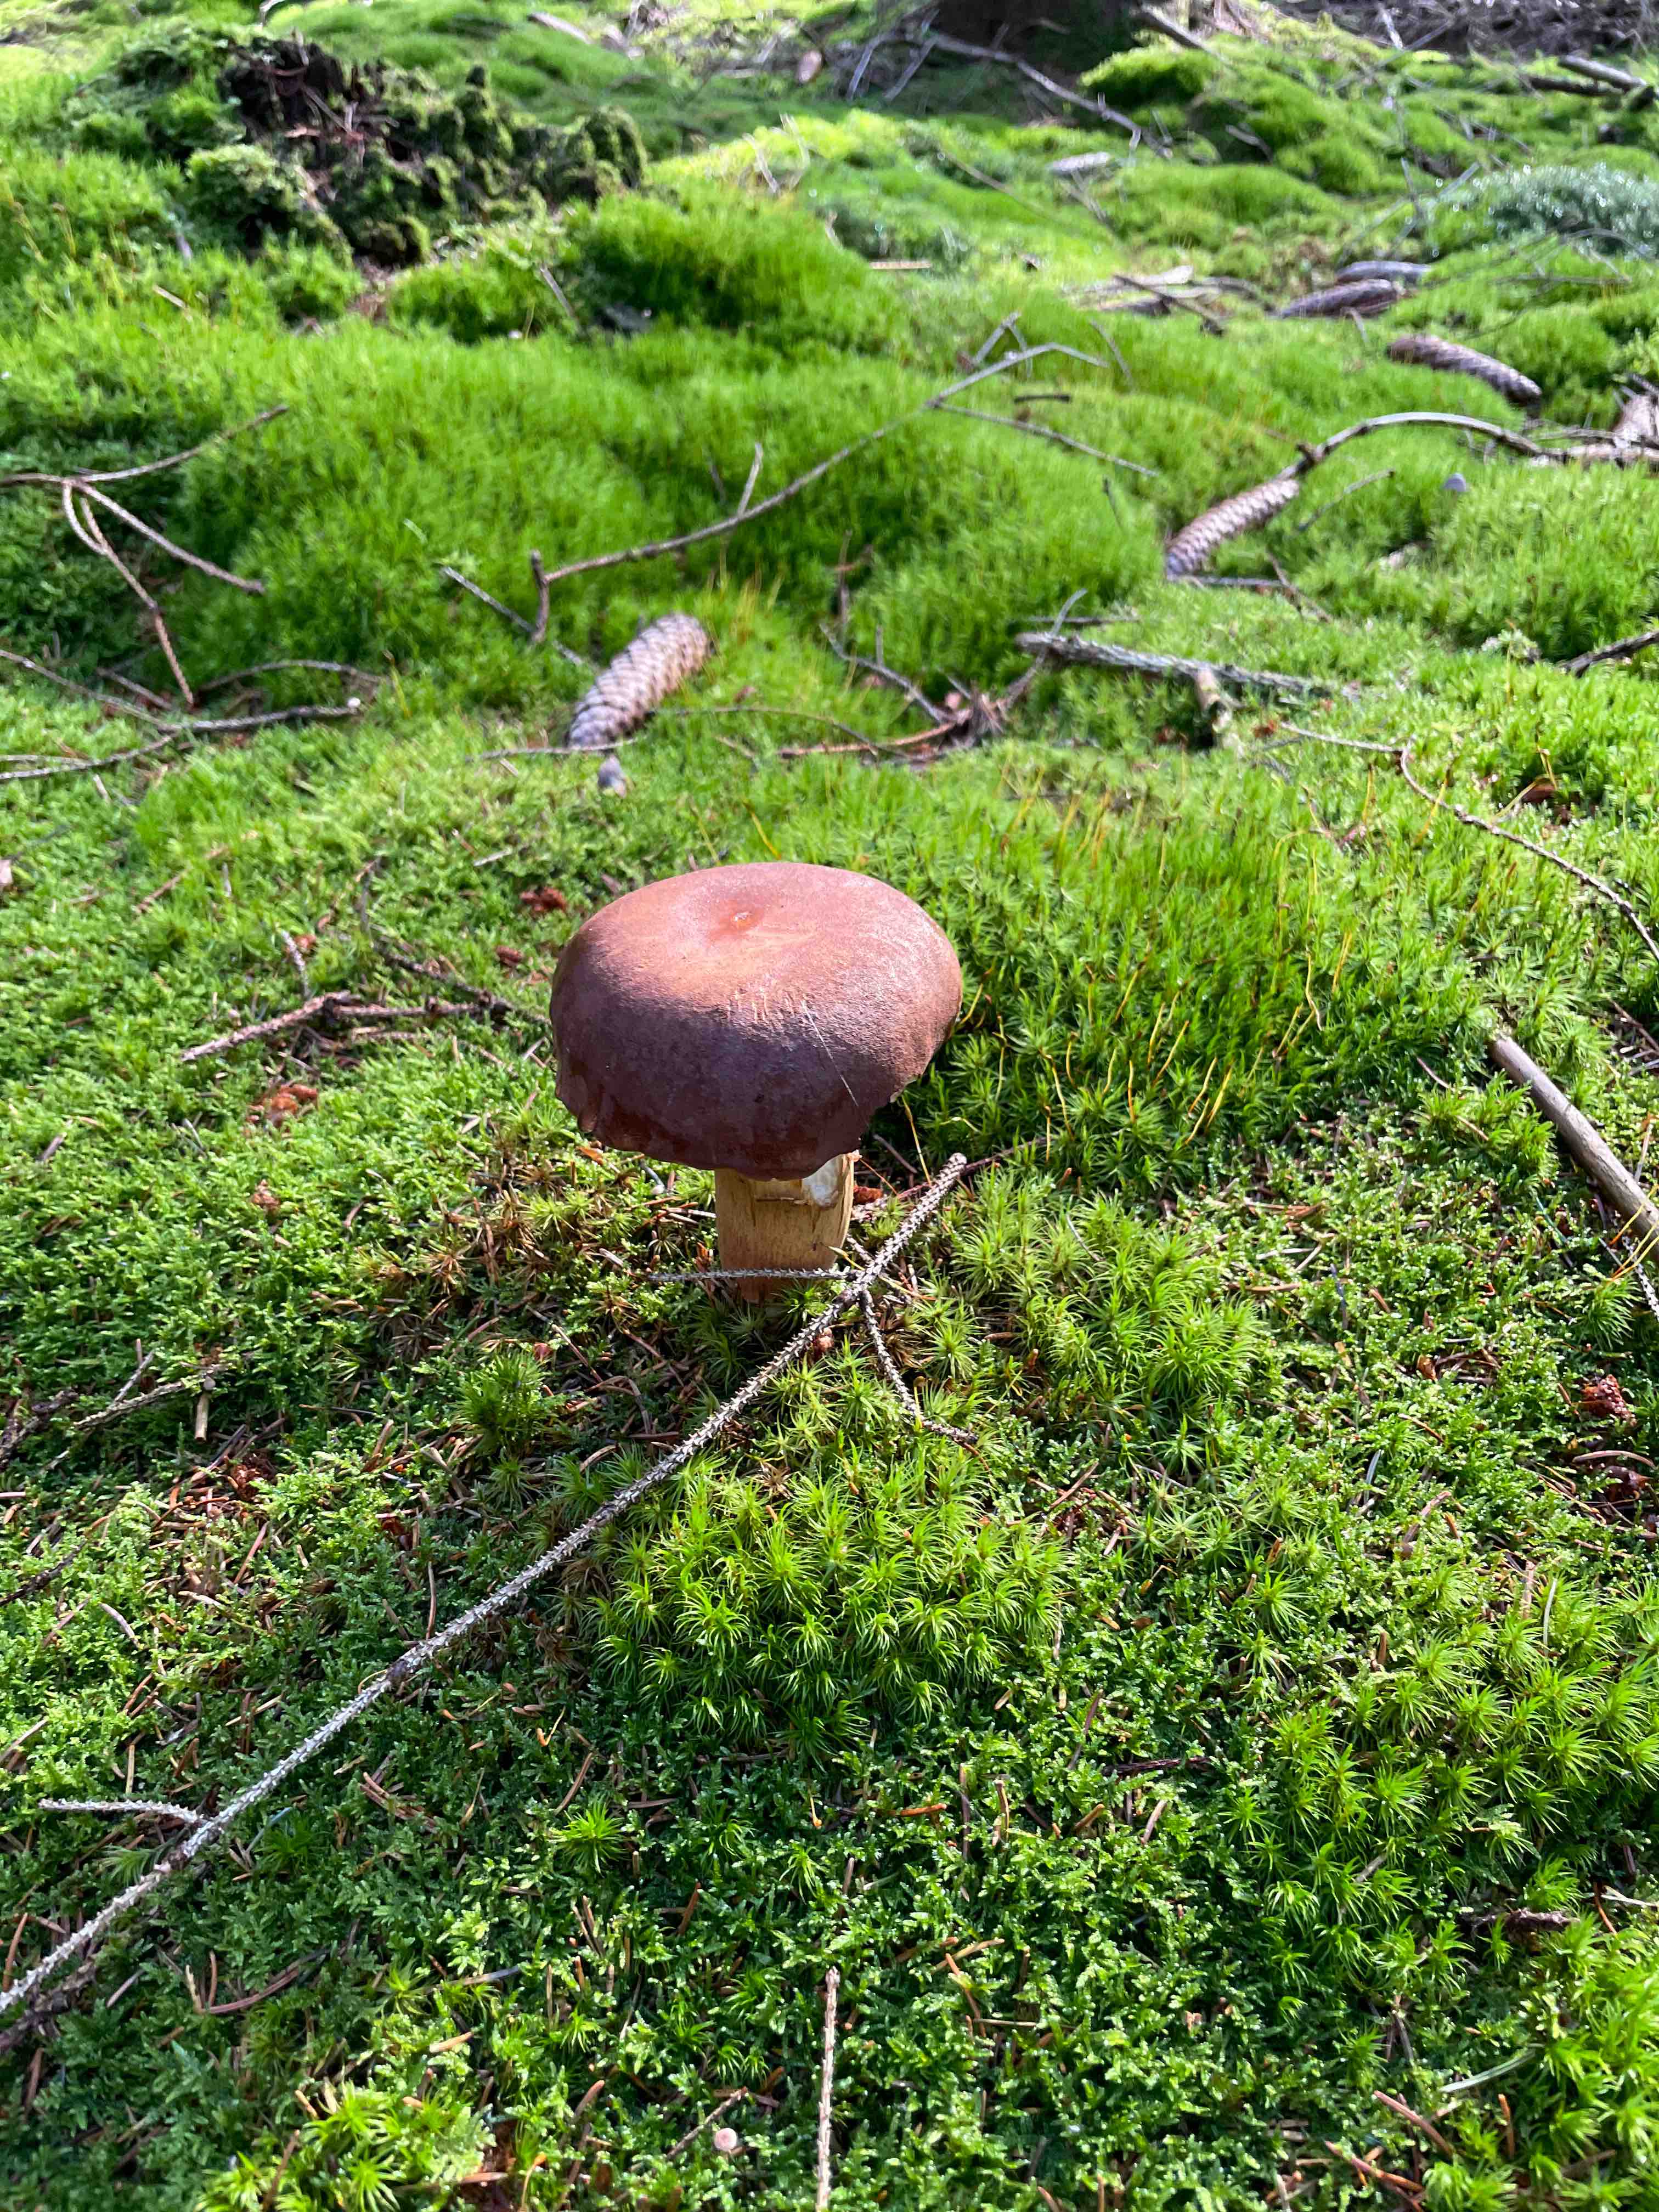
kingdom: Fungi
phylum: Basidiomycota
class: Agaricomycetes
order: Boletales
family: Boletaceae
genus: Imleria
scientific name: Imleria badia
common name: brunstokket rørhat
